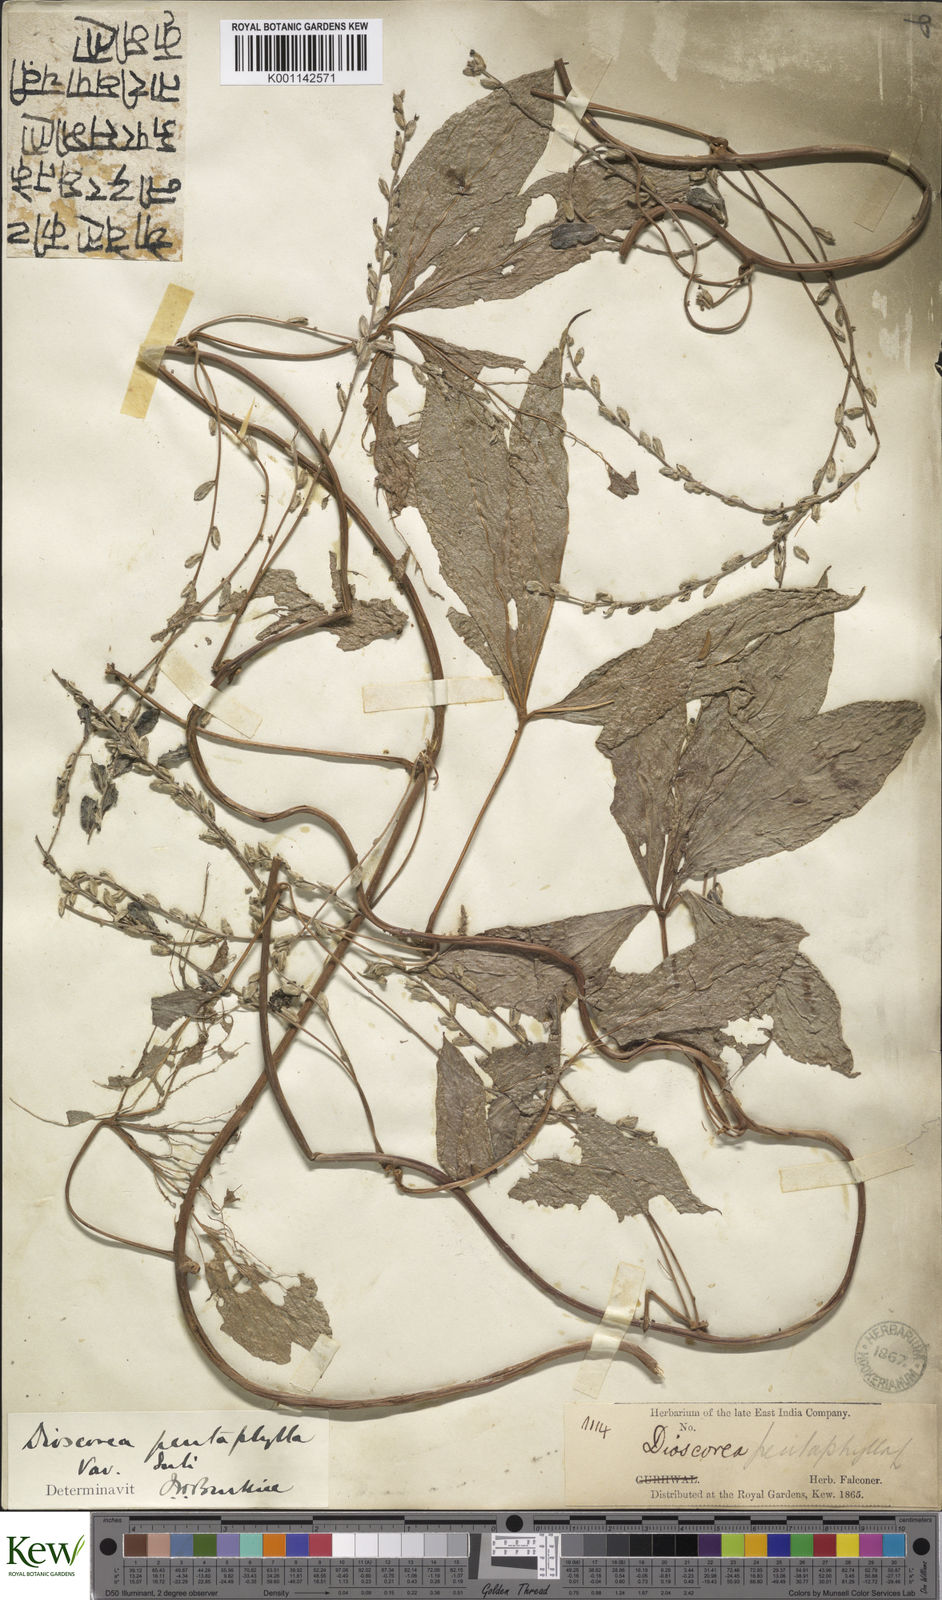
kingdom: Plantae
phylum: Tracheophyta
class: Liliopsida
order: Dioscoreales
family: Dioscoreaceae
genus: Dioscorea
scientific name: Dioscorea pentaphylla
